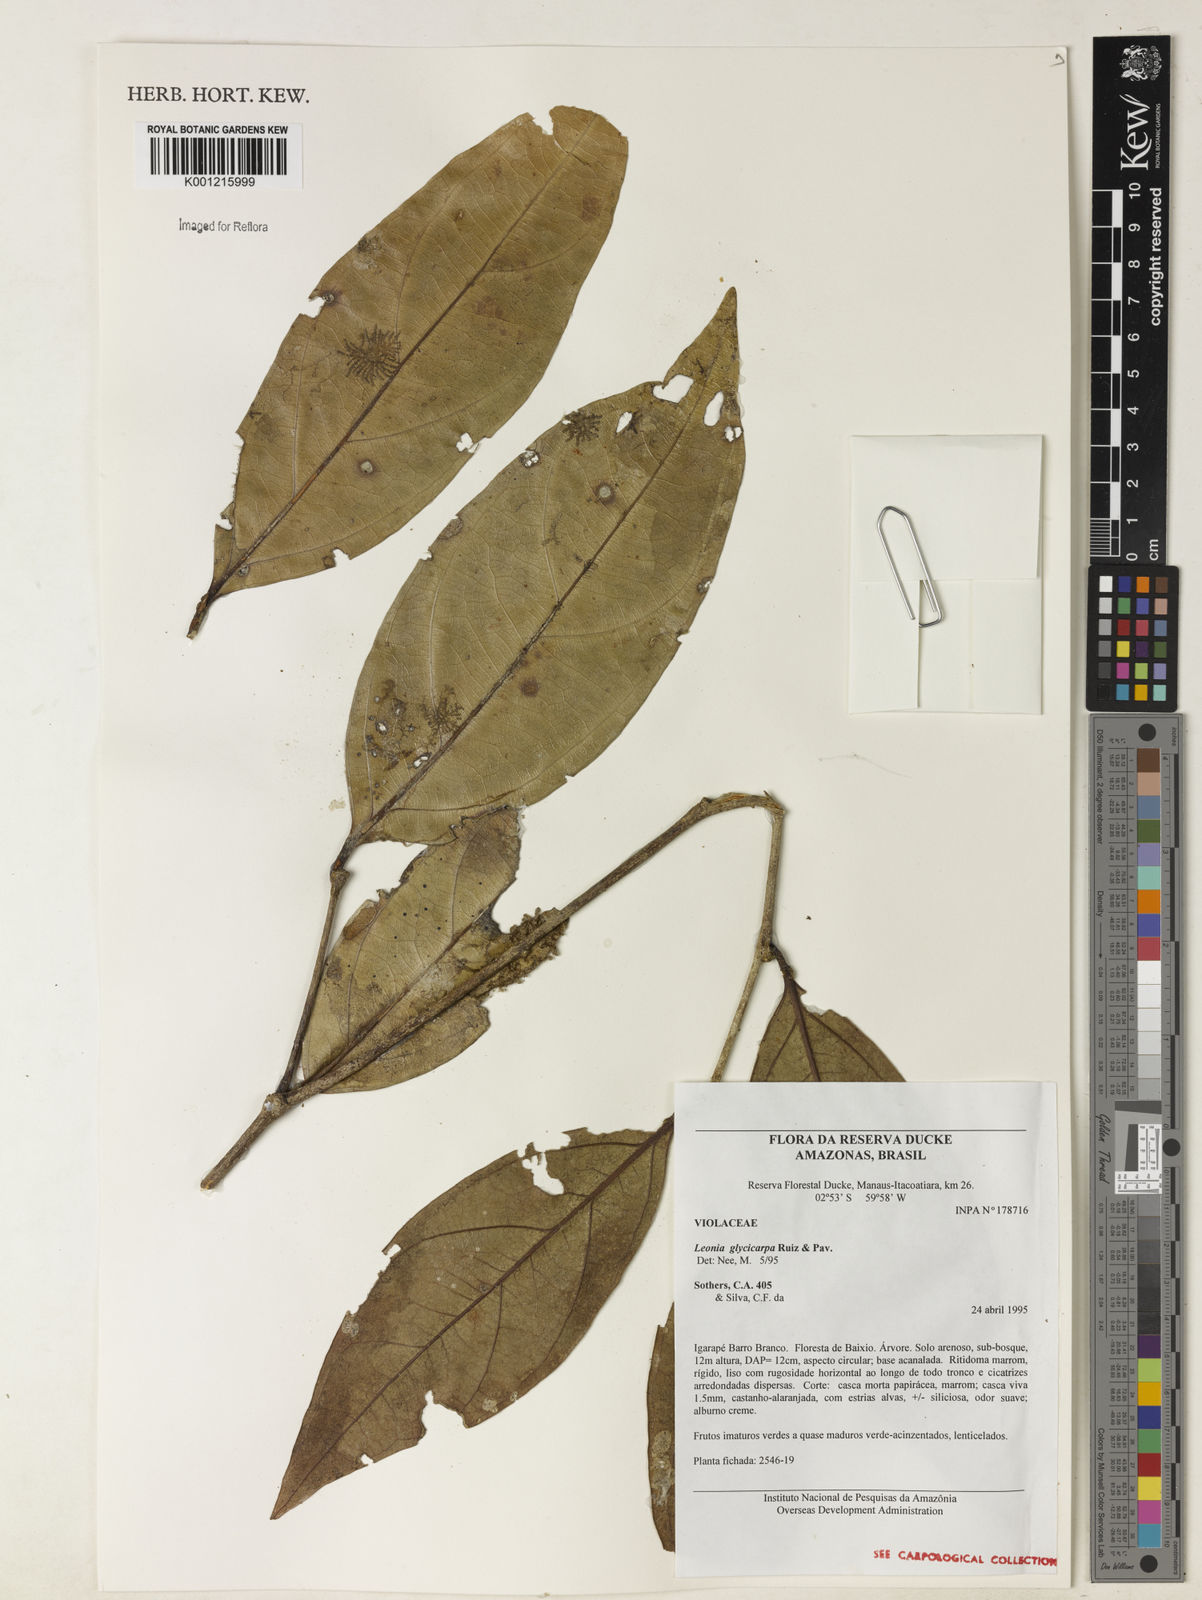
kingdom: Plantae
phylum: Tracheophyta
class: Magnoliopsida
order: Malpighiales
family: Violaceae
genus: Leonia
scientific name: Leonia glycycarpa
